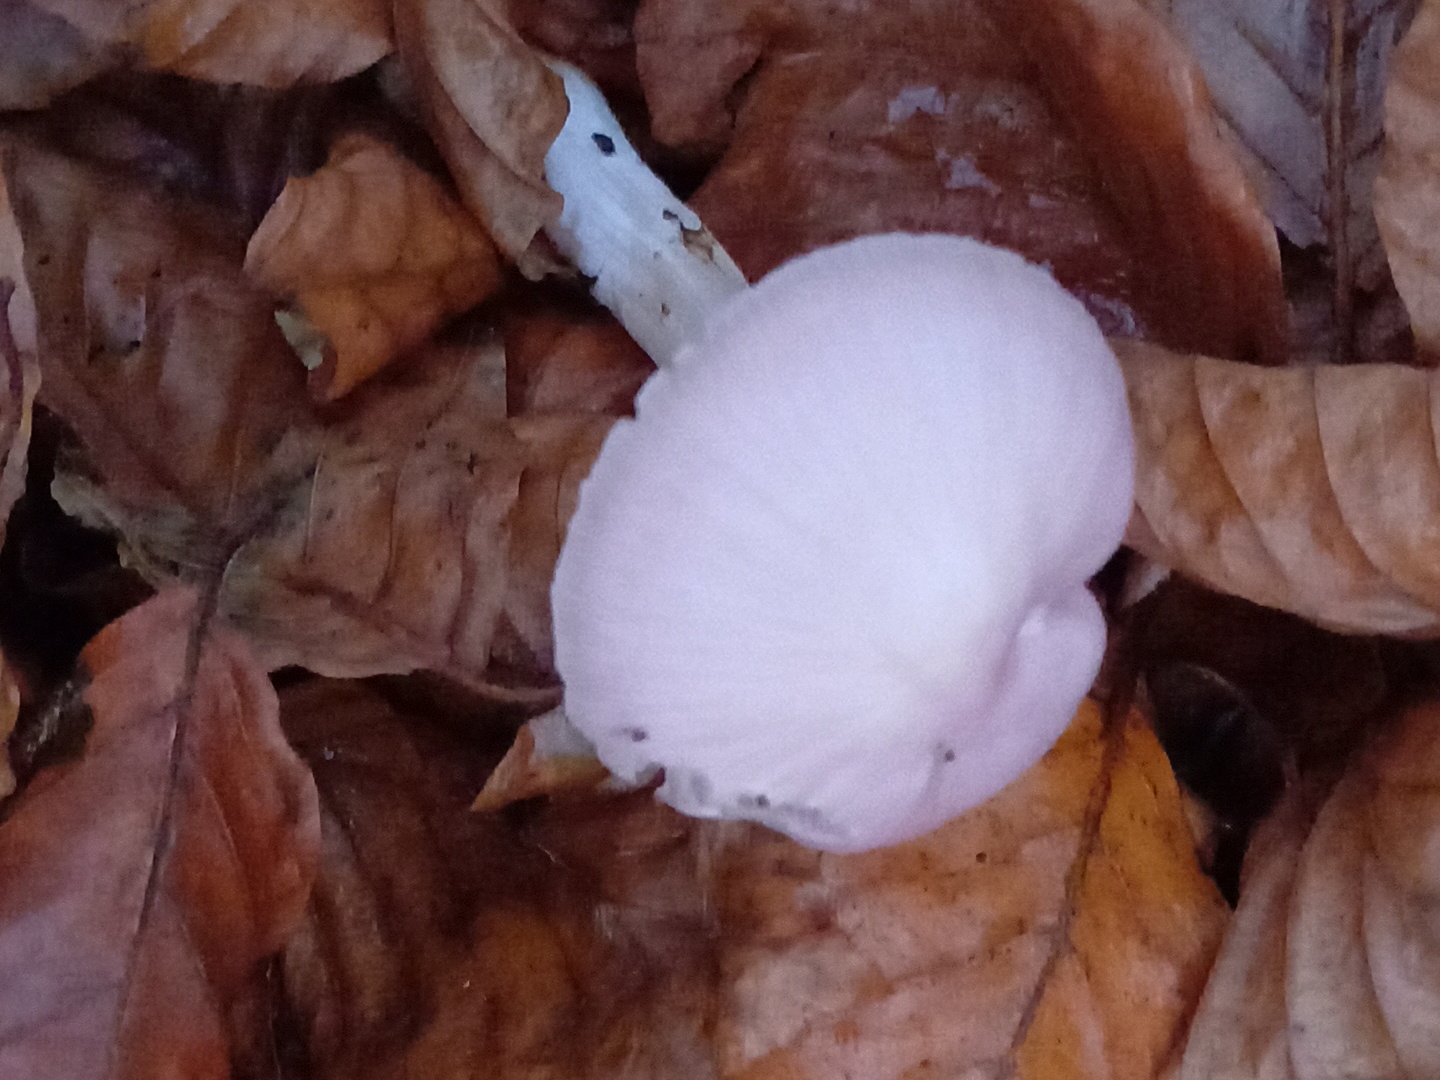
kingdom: Fungi
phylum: Basidiomycota
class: Agaricomycetes
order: Agaricales
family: Mycenaceae
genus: Mycena
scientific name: Mycena rosea
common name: rosa huesvamp
